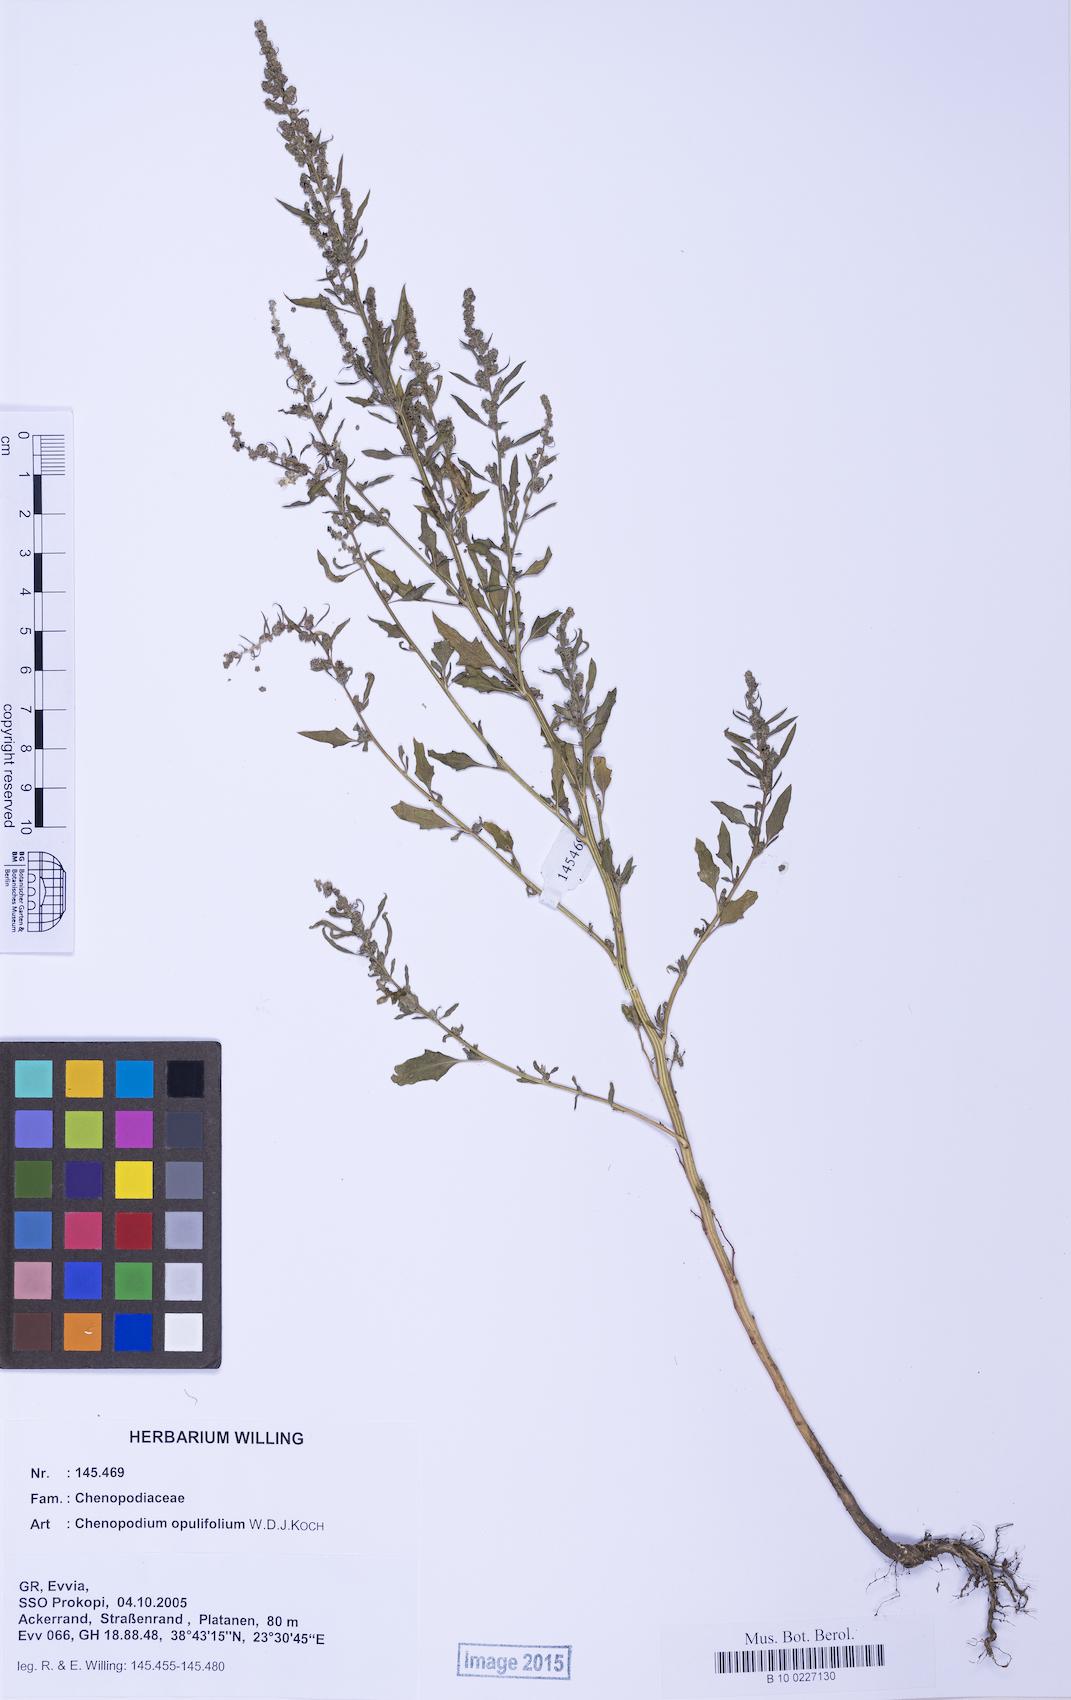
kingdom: Plantae
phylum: Tracheophyta
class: Magnoliopsida
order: Caryophyllales
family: Amaranthaceae
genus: Chenopodium
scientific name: Chenopodium album
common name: Fat-hen
